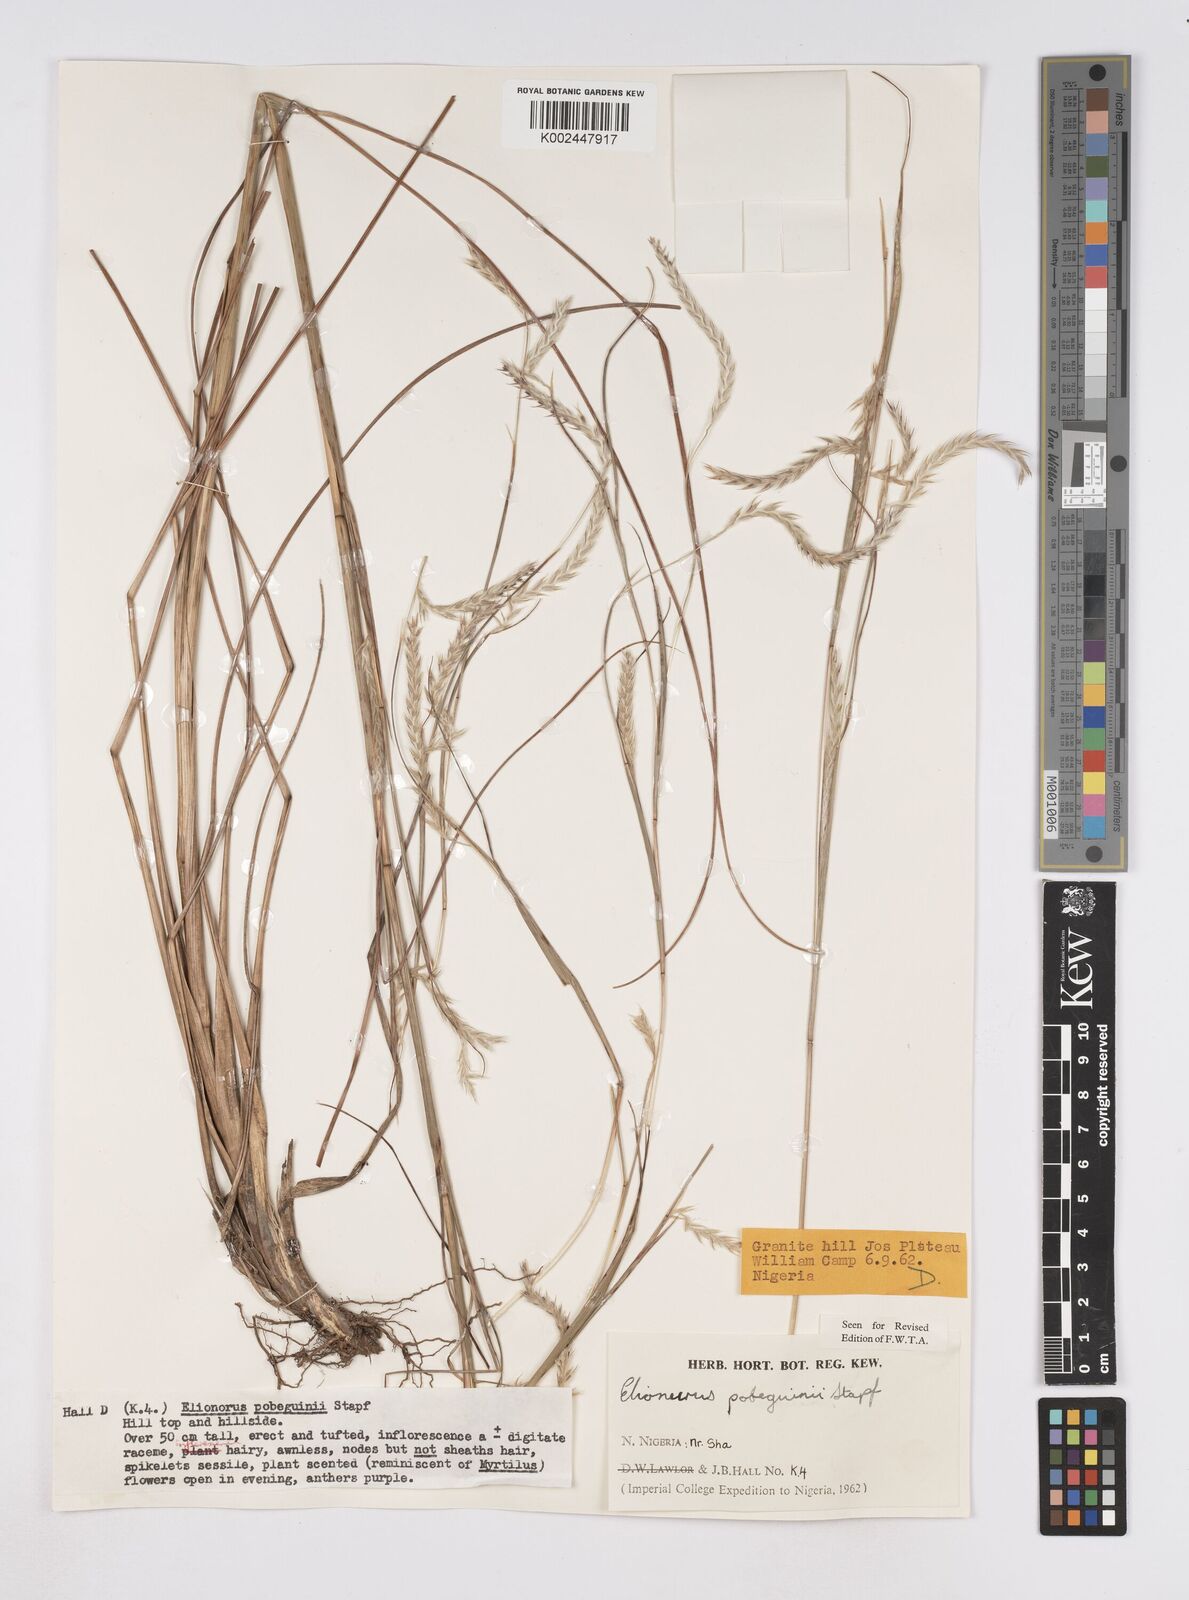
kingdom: Plantae
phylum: Tracheophyta
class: Liliopsida
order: Poales
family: Poaceae
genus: Elionurus
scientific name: Elionurus
